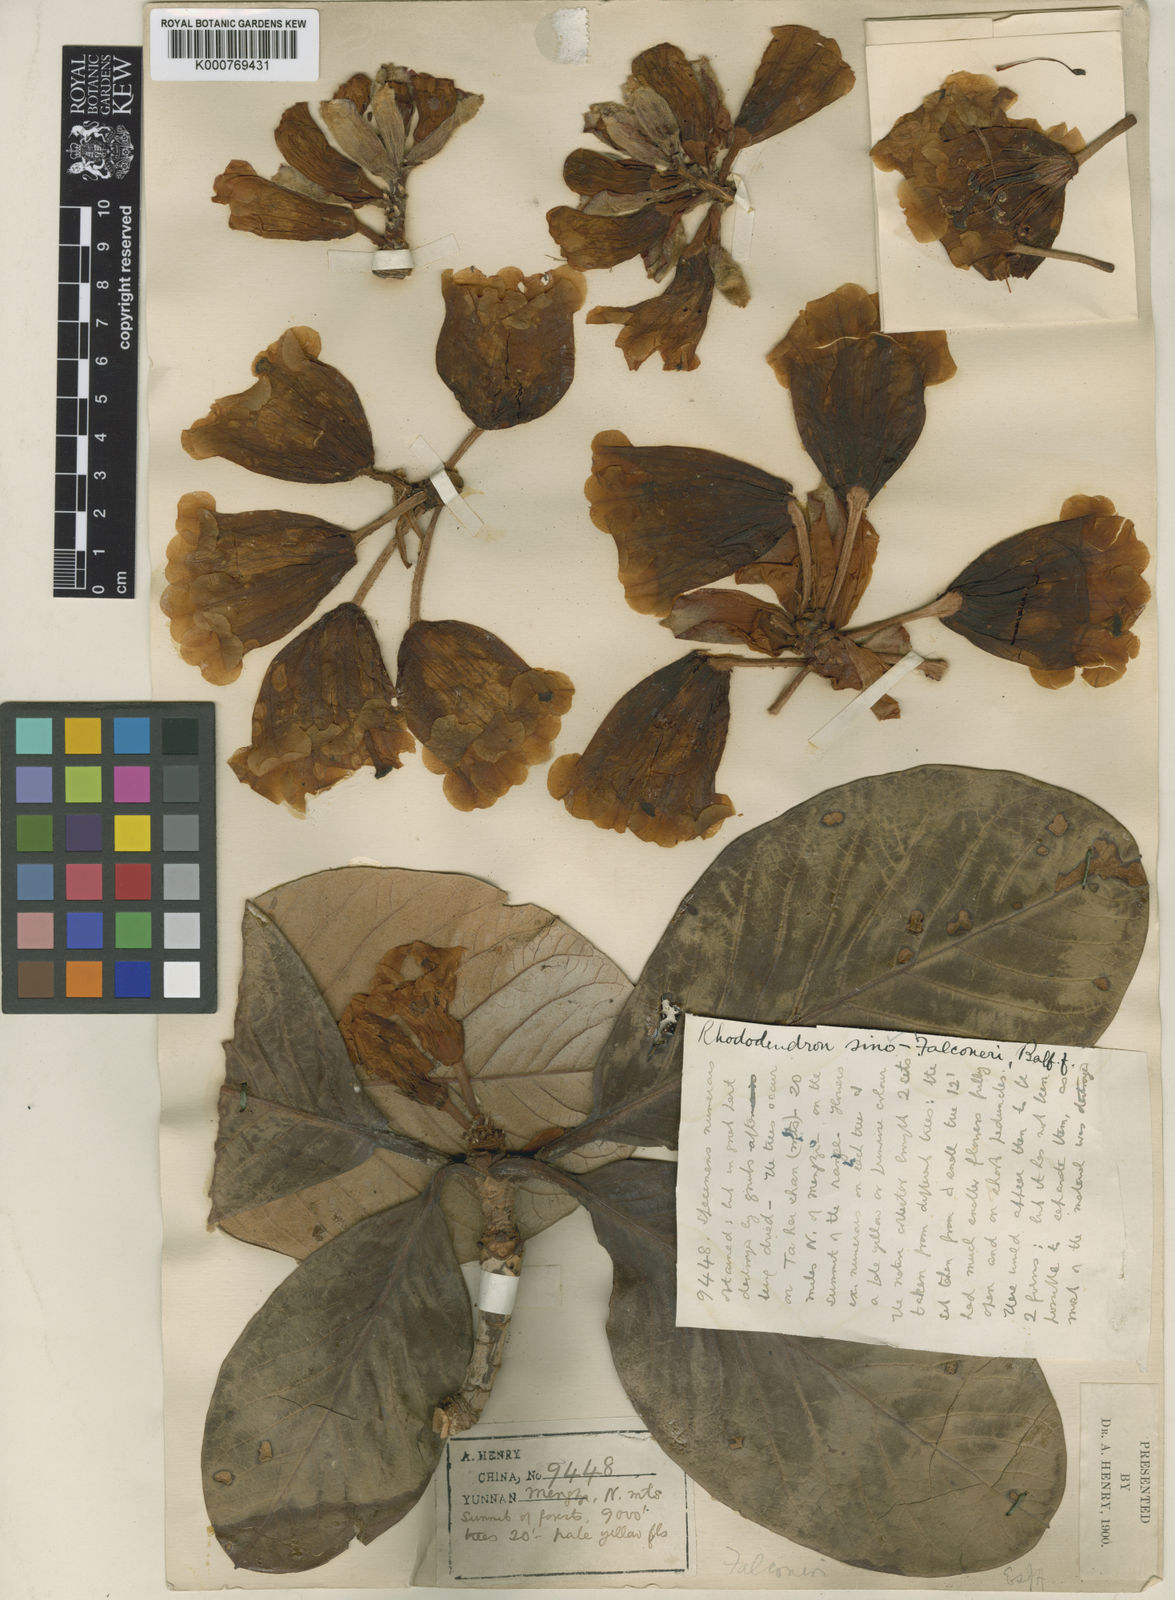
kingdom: Plantae
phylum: Tracheophyta
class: Magnoliopsida
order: Ericales
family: Ericaceae
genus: Rhododendron
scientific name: Rhododendron sinofalconeri
